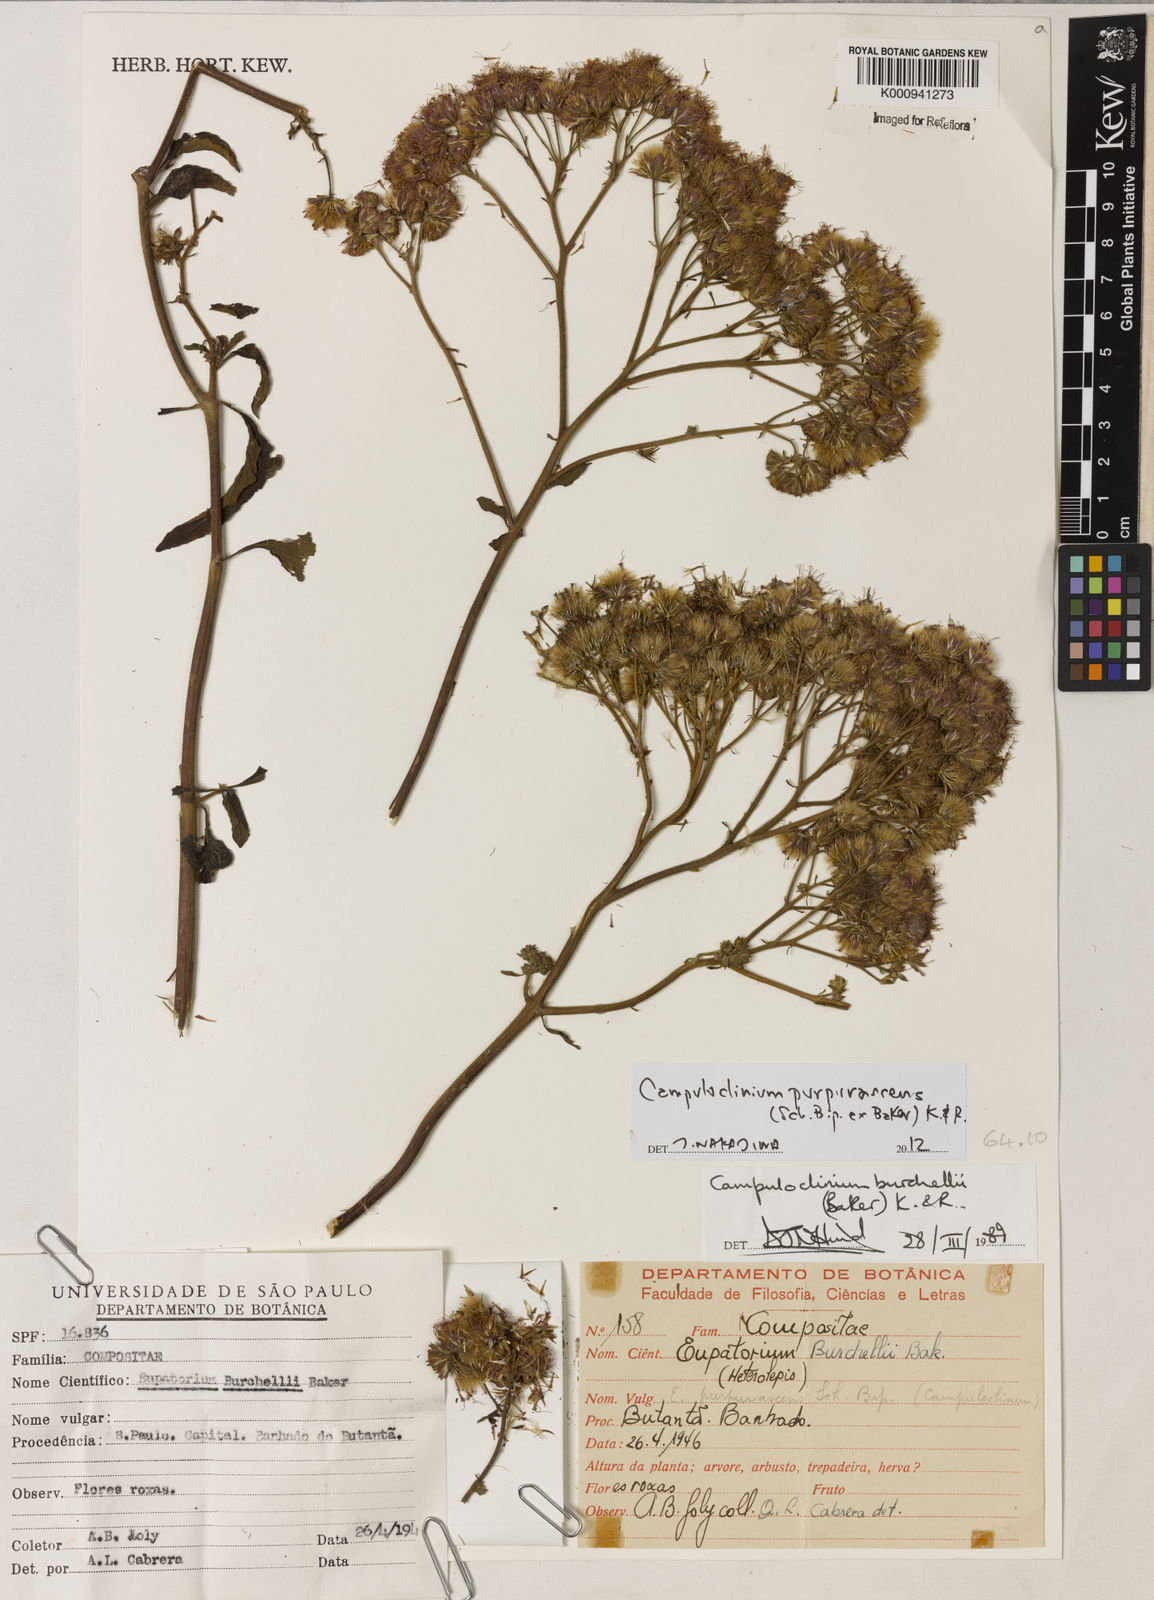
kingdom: Plantae
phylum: Tracheophyta
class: Magnoliopsida
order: Asterales
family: Asteraceae
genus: Campuloclinium
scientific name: Campuloclinium purpurascens
